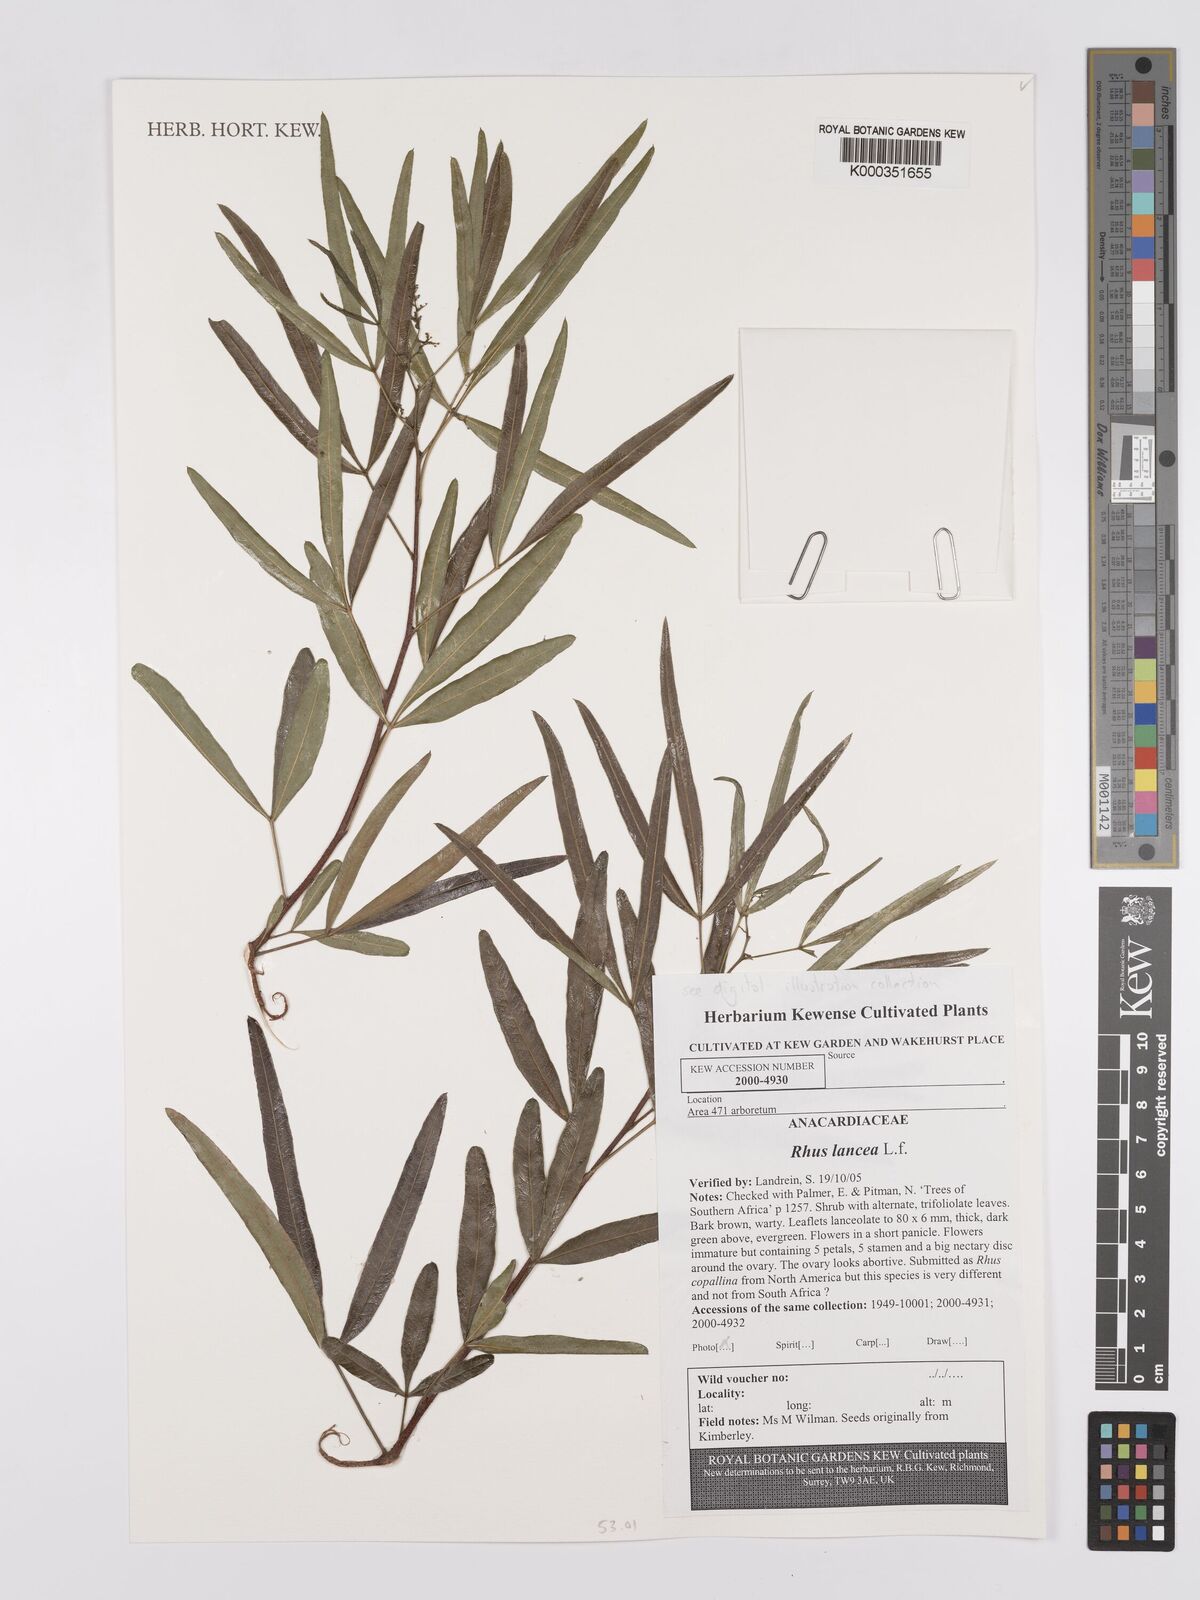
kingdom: Plantae
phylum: Tracheophyta
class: Magnoliopsida
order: Sapindales
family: Anacardiaceae
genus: Searsia
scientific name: Searsia lancea
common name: Cashew
